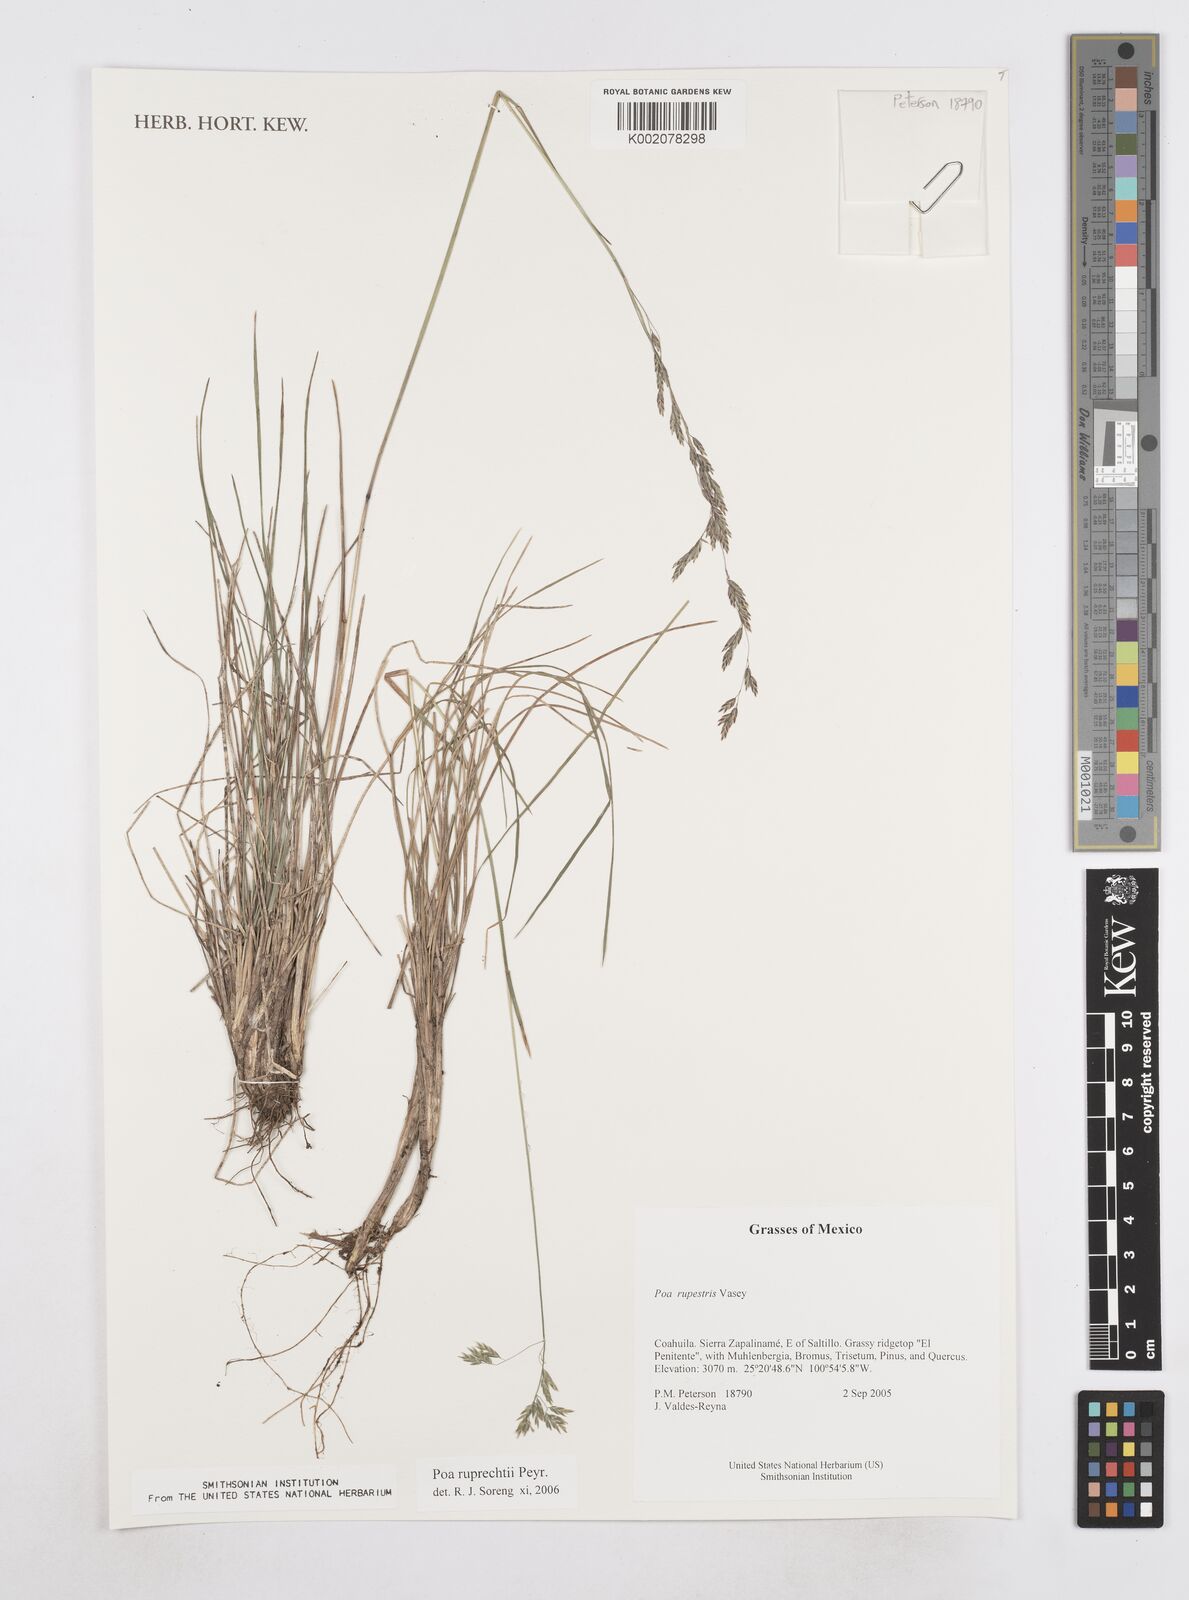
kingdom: Plantae
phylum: Tracheophyta
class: Liliopsida
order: Poales
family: Poaceae
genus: Poa
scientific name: Poa ruprechtii
